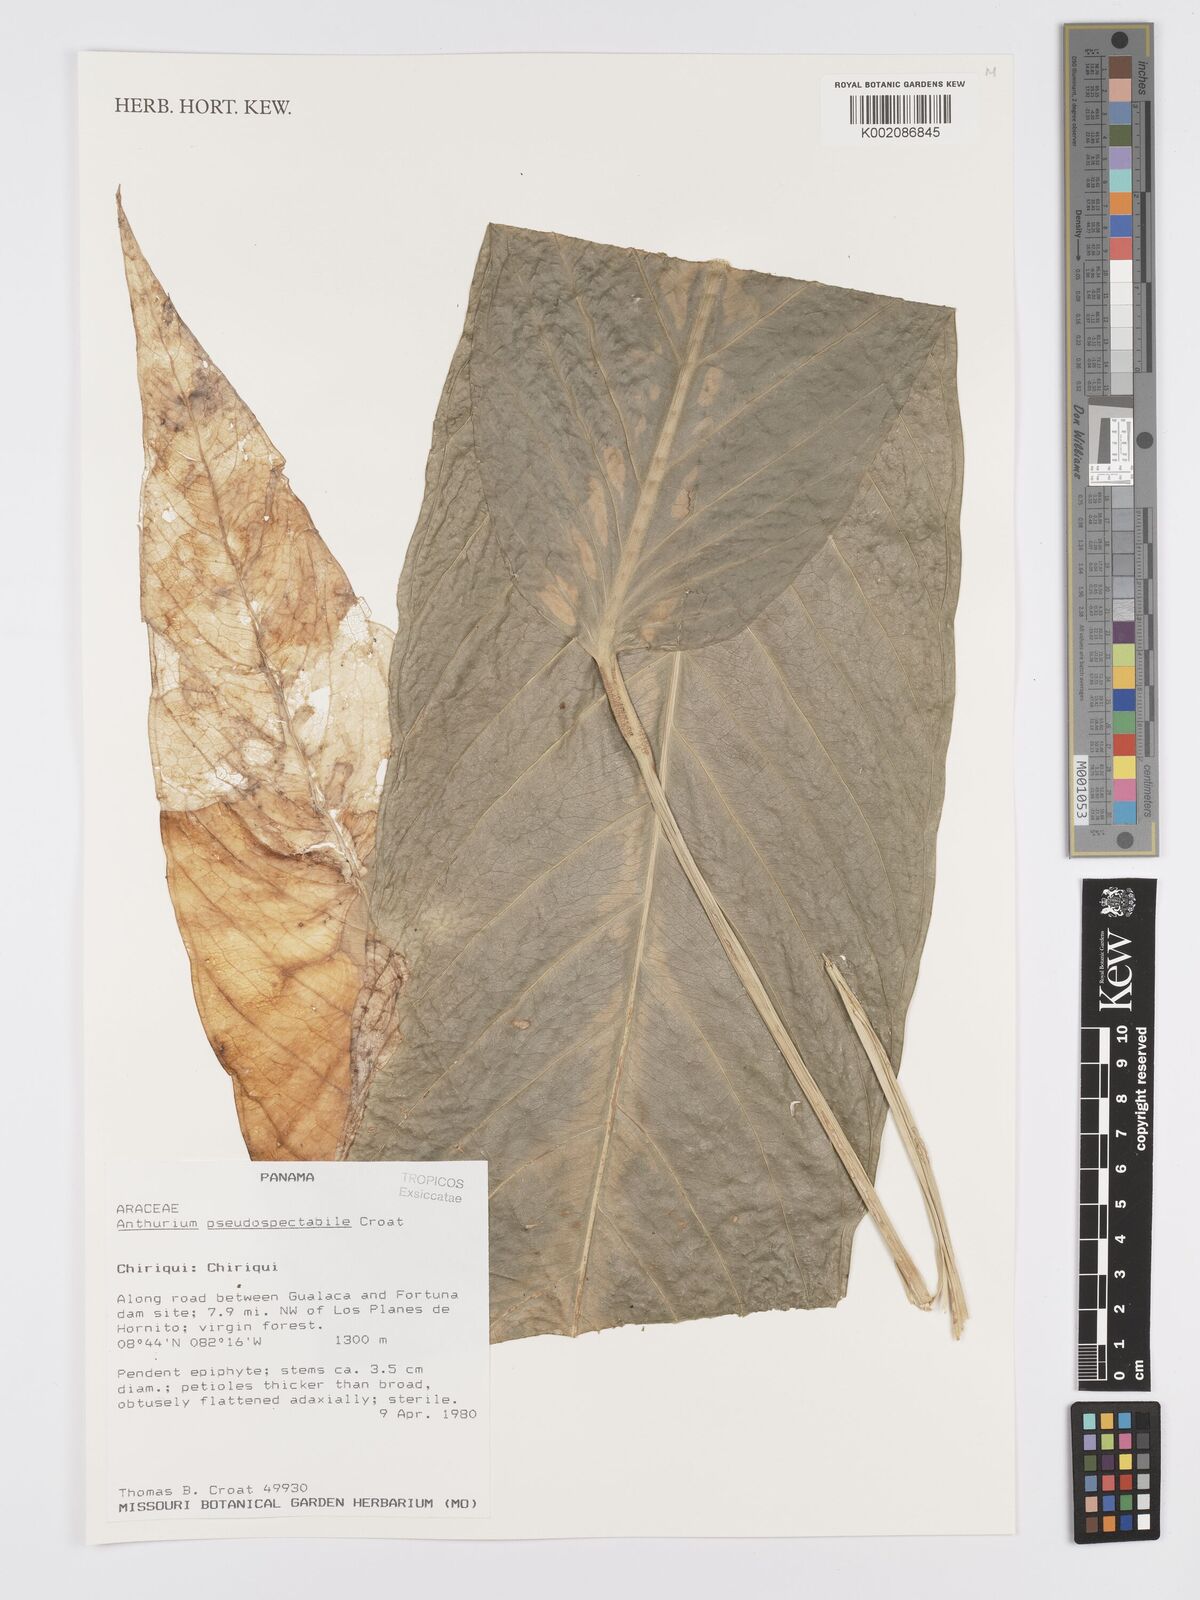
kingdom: Plantae
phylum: Tracheophyta
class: Liliopsida
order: Alismatales
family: Araceae
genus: Anthurium
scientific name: Anthurium pseudospectabile
